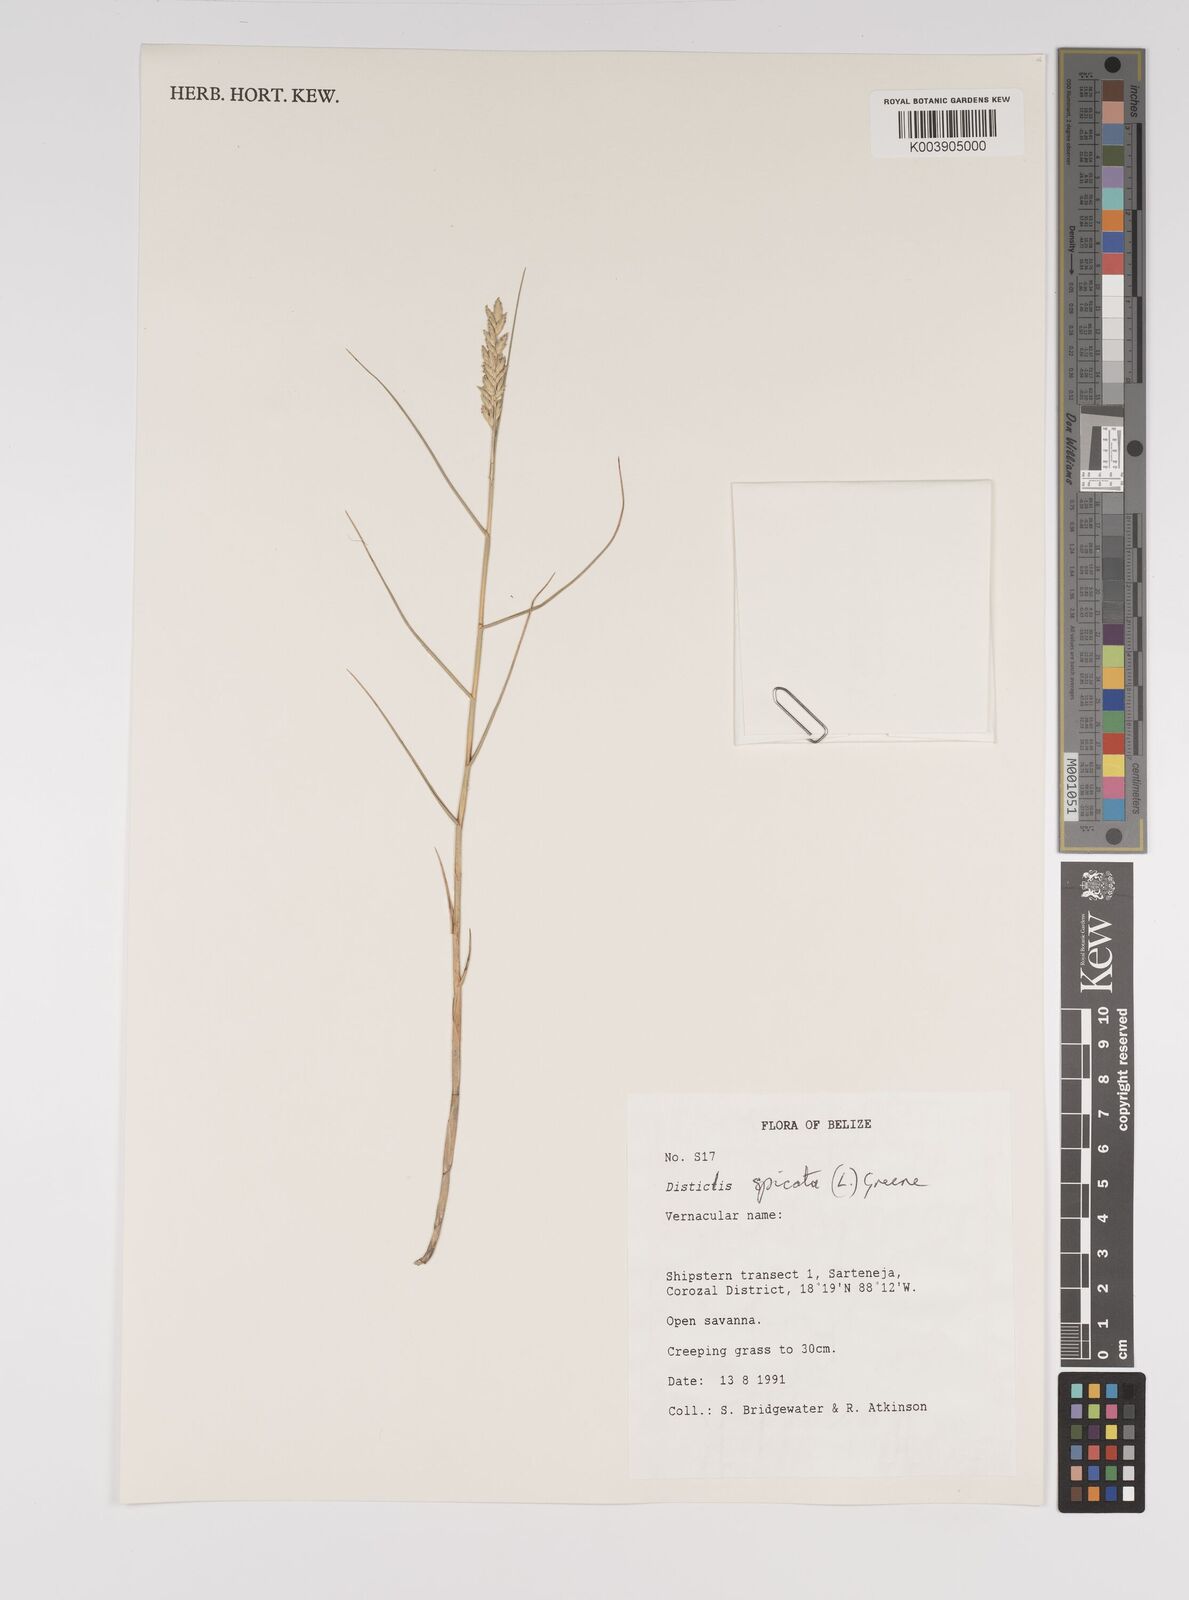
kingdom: Plantae
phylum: Tracheophyta
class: Liliopsida
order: Poales
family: Poaceae
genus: Distichlis
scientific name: Distichlis spicata
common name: Saltgrass
